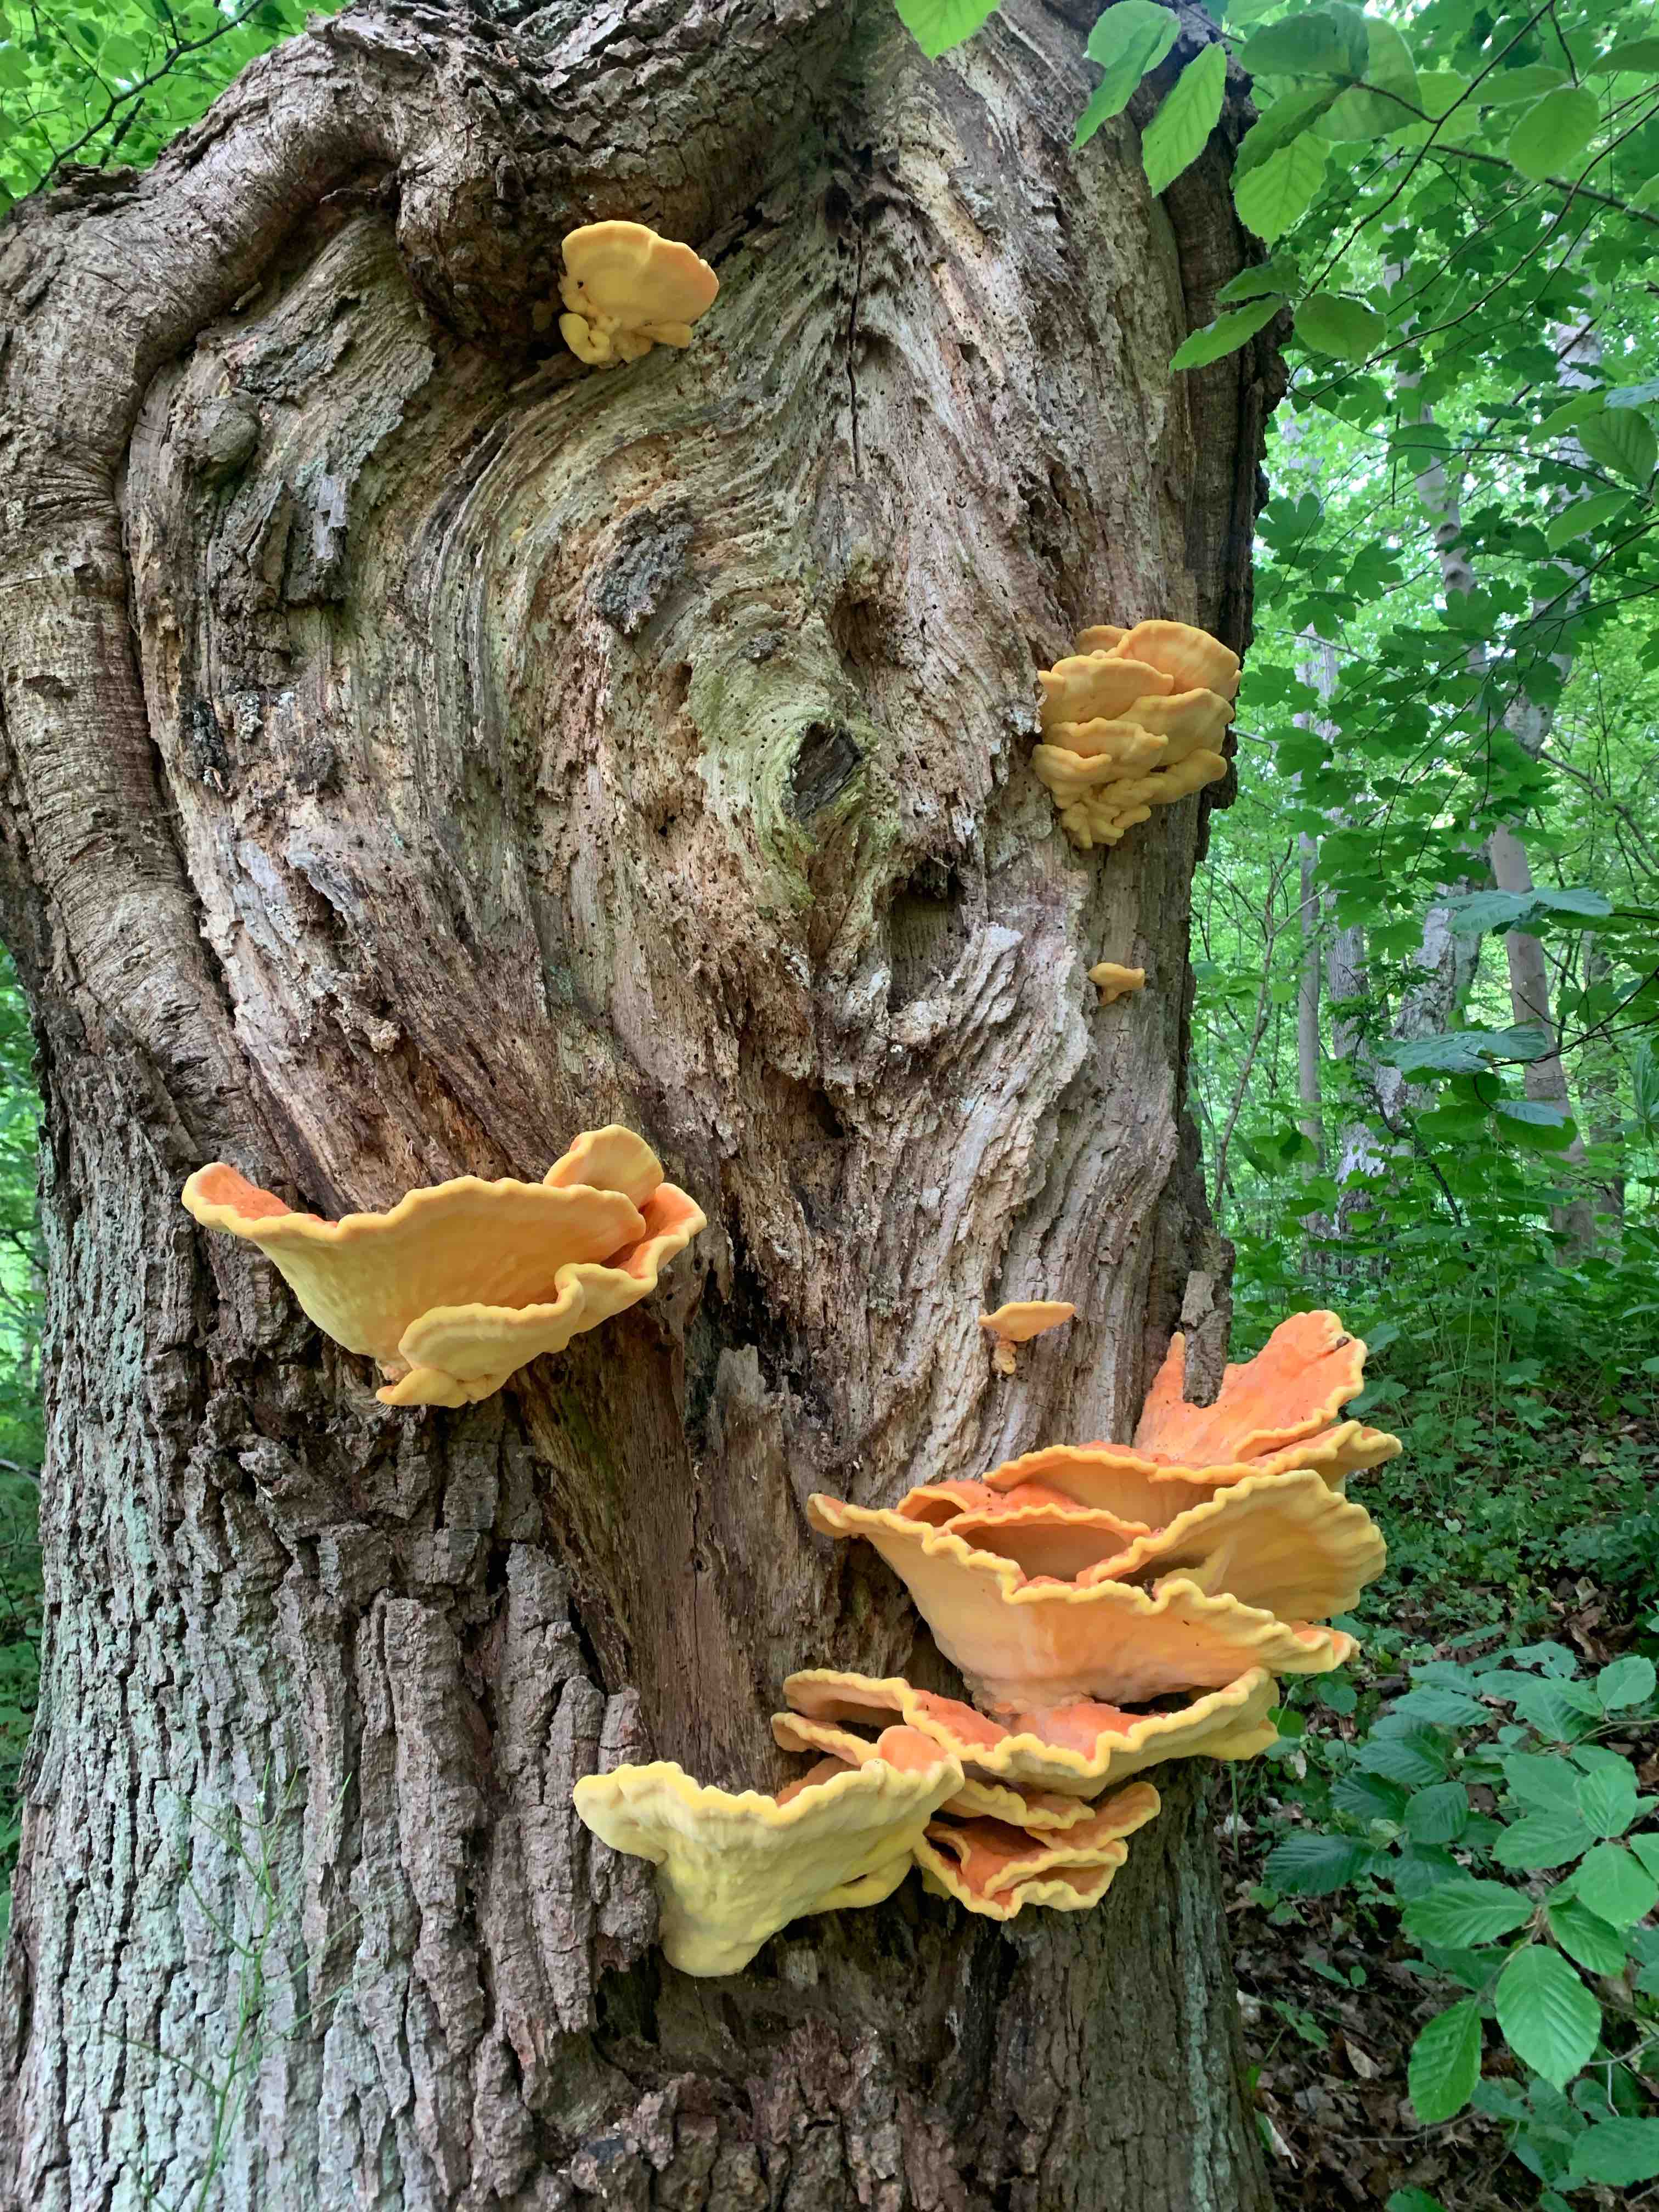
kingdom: Fungi
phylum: Basidiomycota
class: Agaricomycetes
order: Polyporales
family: Laetiporaceae
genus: Laetiporus
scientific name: Laetiporus sulphureus
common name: svovlporesvamp
